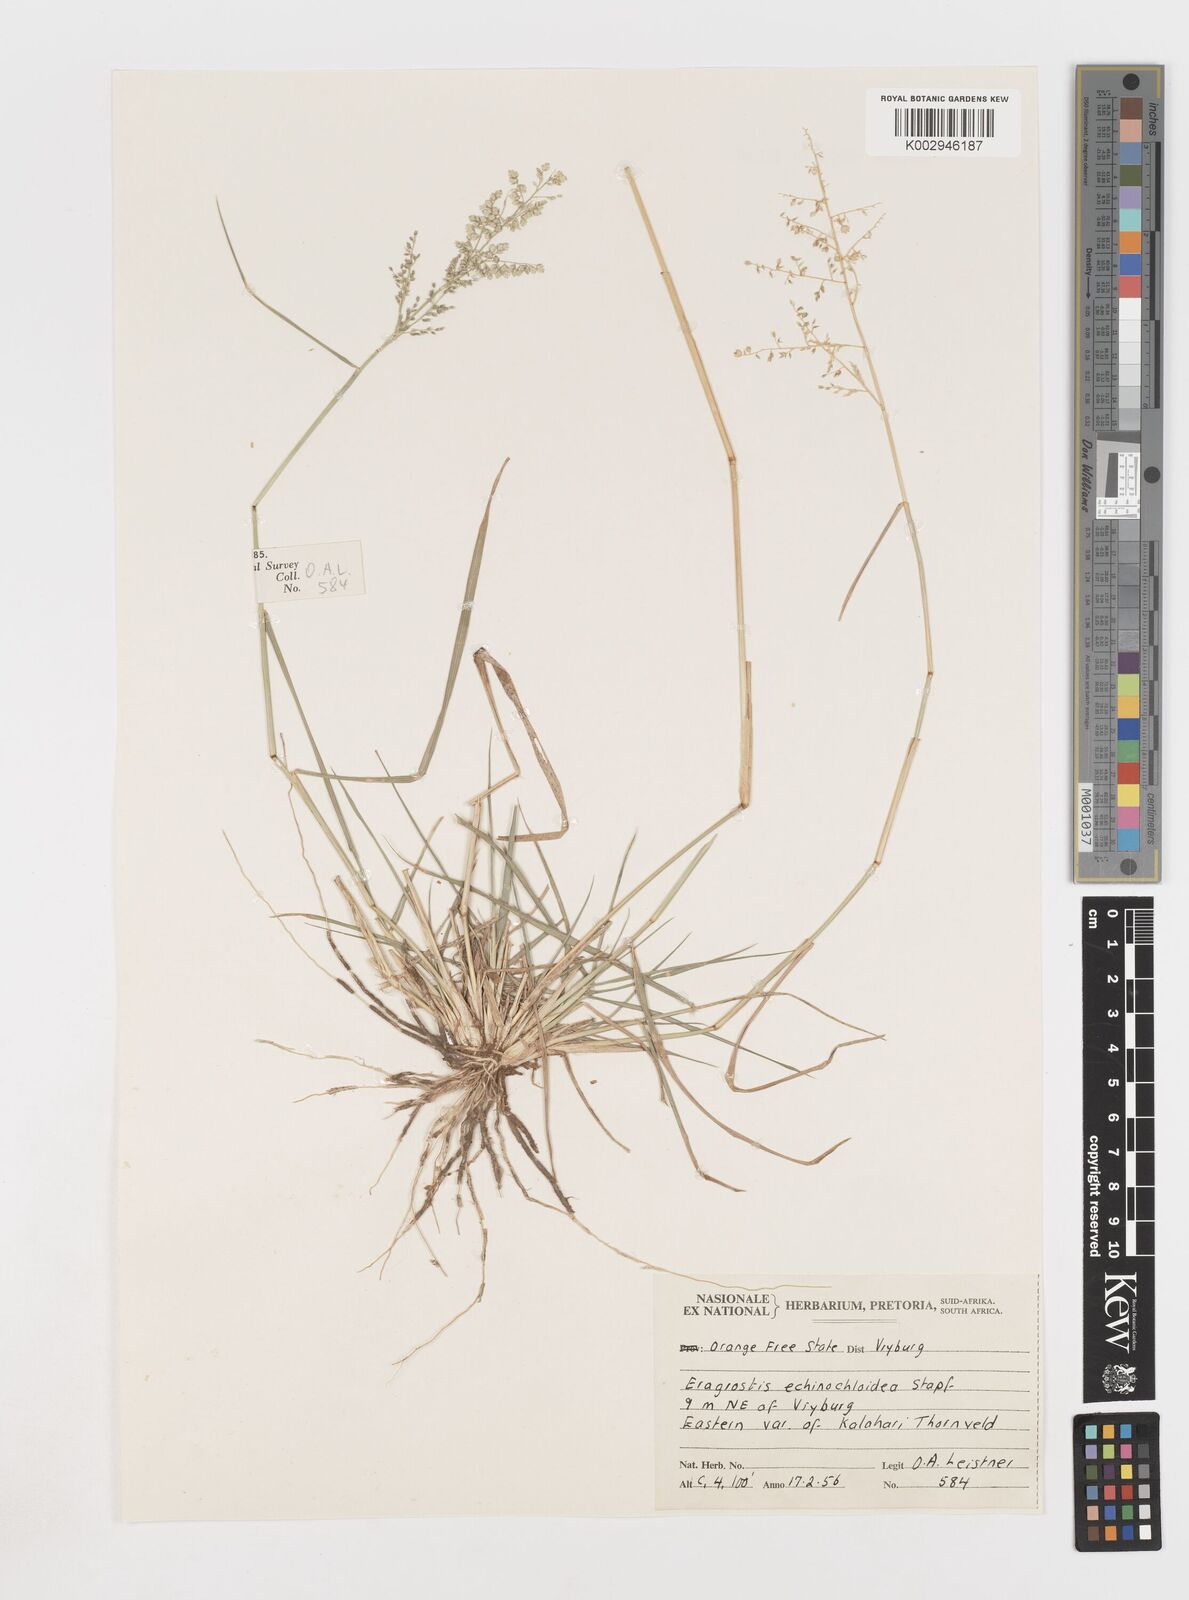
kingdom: Plantae
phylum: Tracheophyta
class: Liliopsida
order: Poales
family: Poaceae
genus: Eragrostis
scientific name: Eragrostis echinochloidea
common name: African lovegrass
